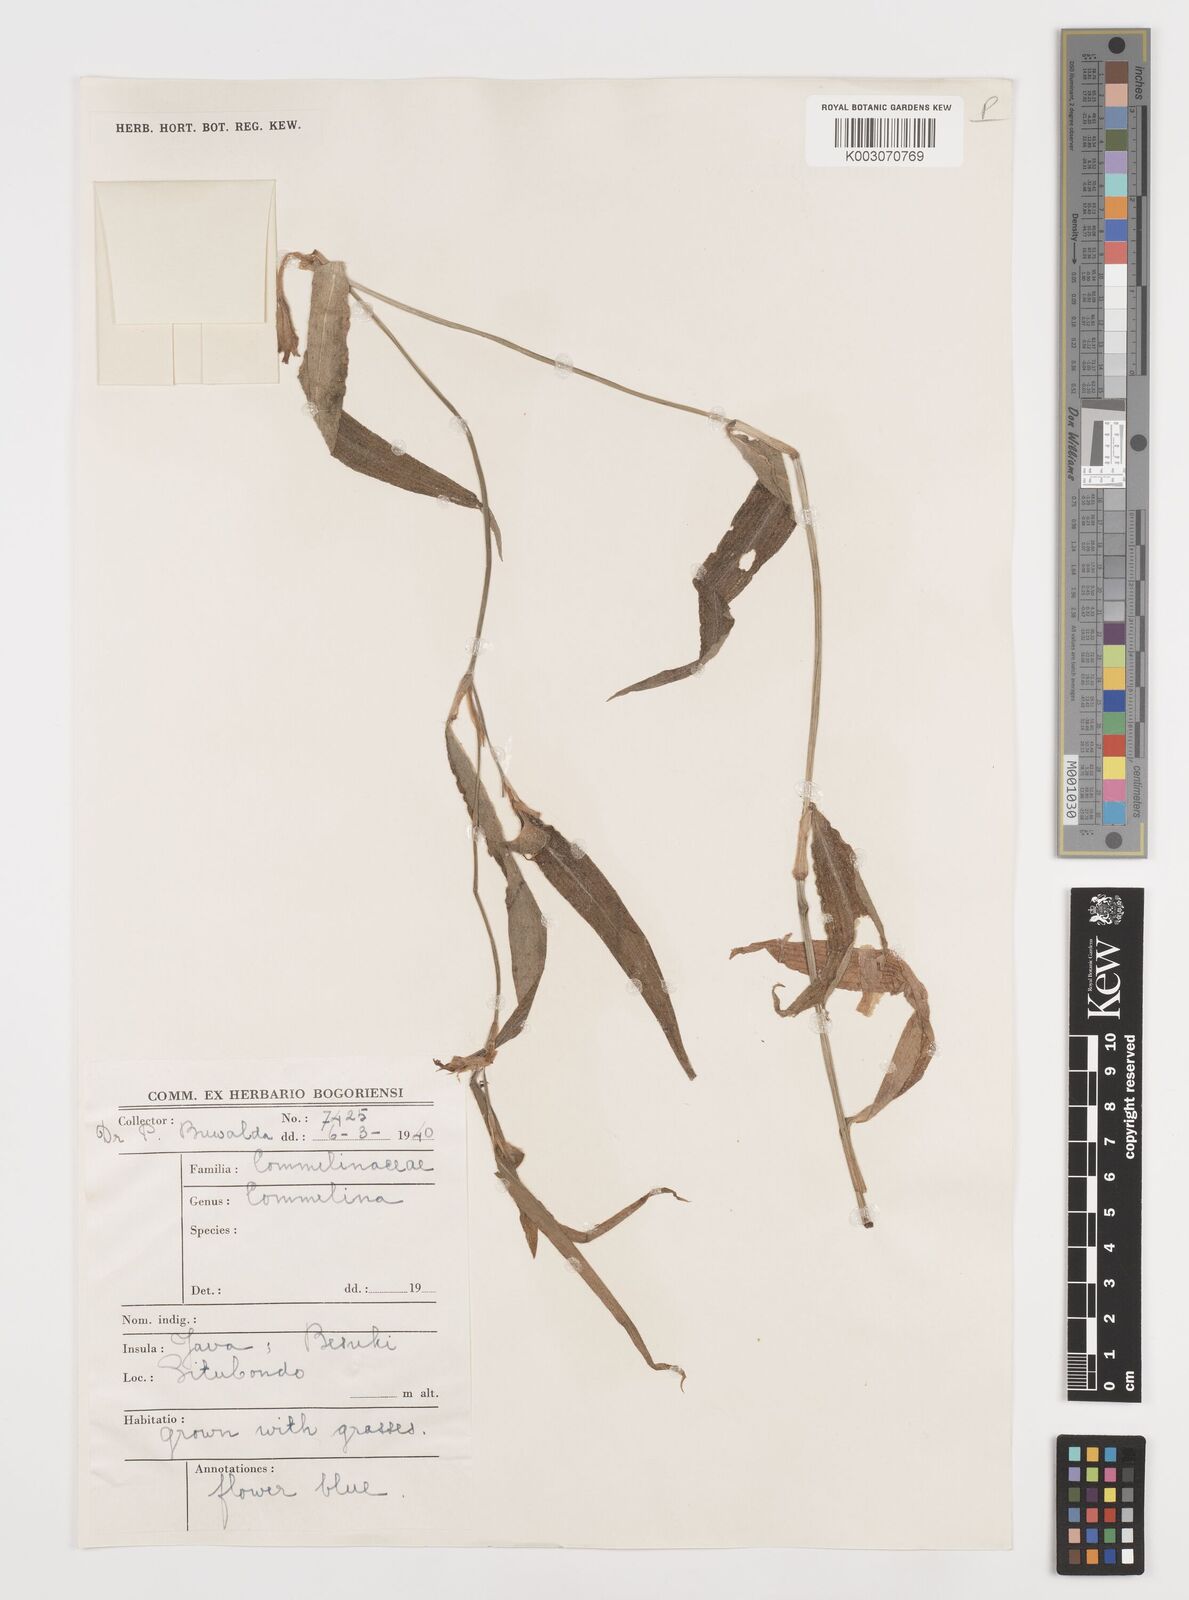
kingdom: Plantae
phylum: Tracheophyta
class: Liliopsida
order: Commelinales
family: Commelinaceae
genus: Commelina
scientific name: Commelina
